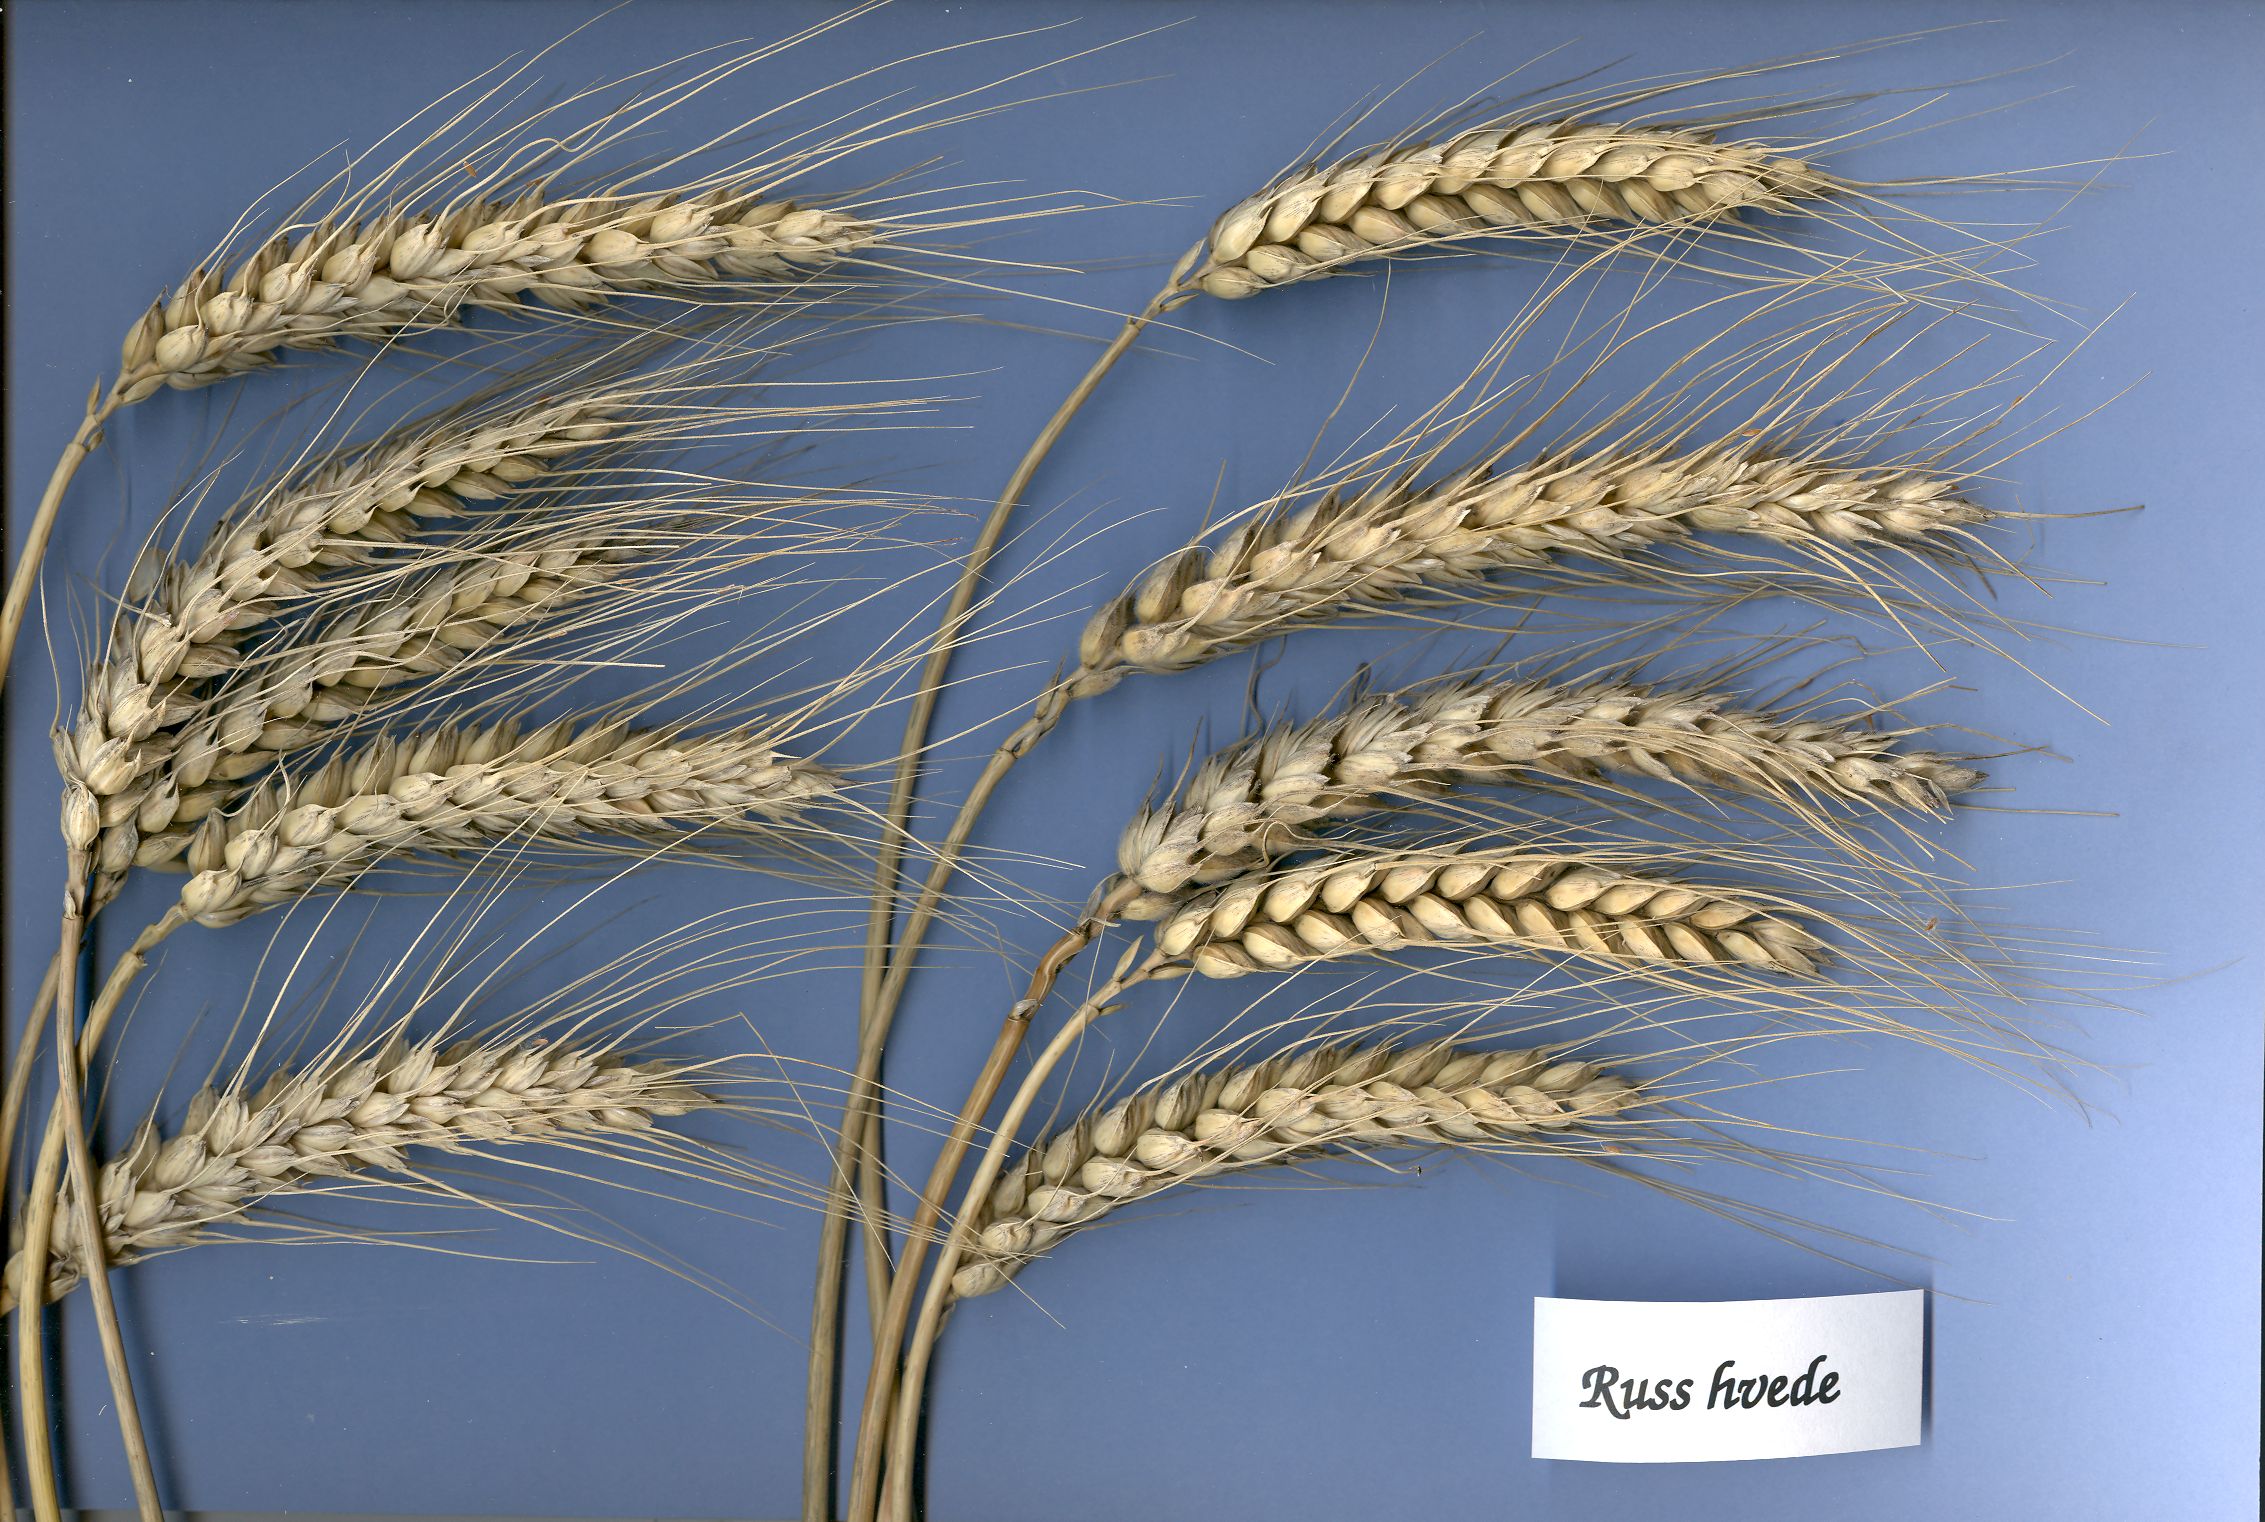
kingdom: Plantae
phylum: Tracheophyta
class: Liliopsida
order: Poales
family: Poaceae
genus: Triticum
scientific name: Triticum aestivum
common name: Common wheat
